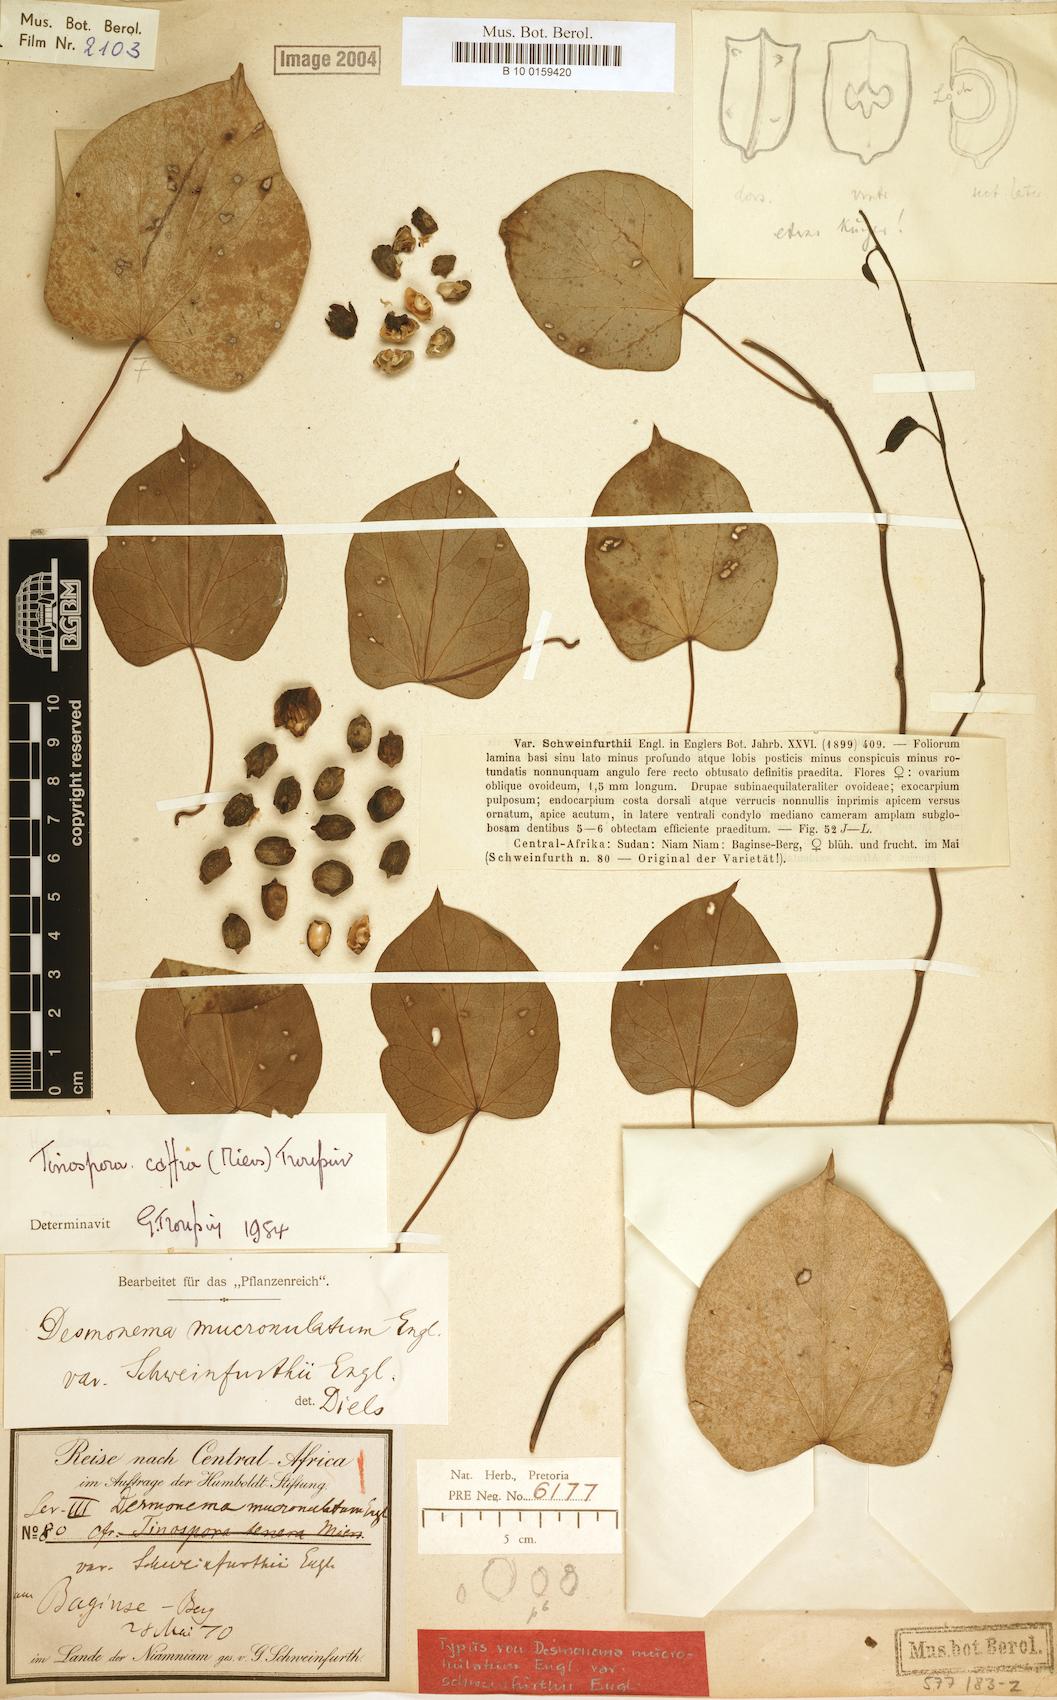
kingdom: Plantae
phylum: Tracheophyta
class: Magnoliopsida
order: Ranunculales
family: Menispermaceae
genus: Tinospora
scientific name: Tinospora caffra
